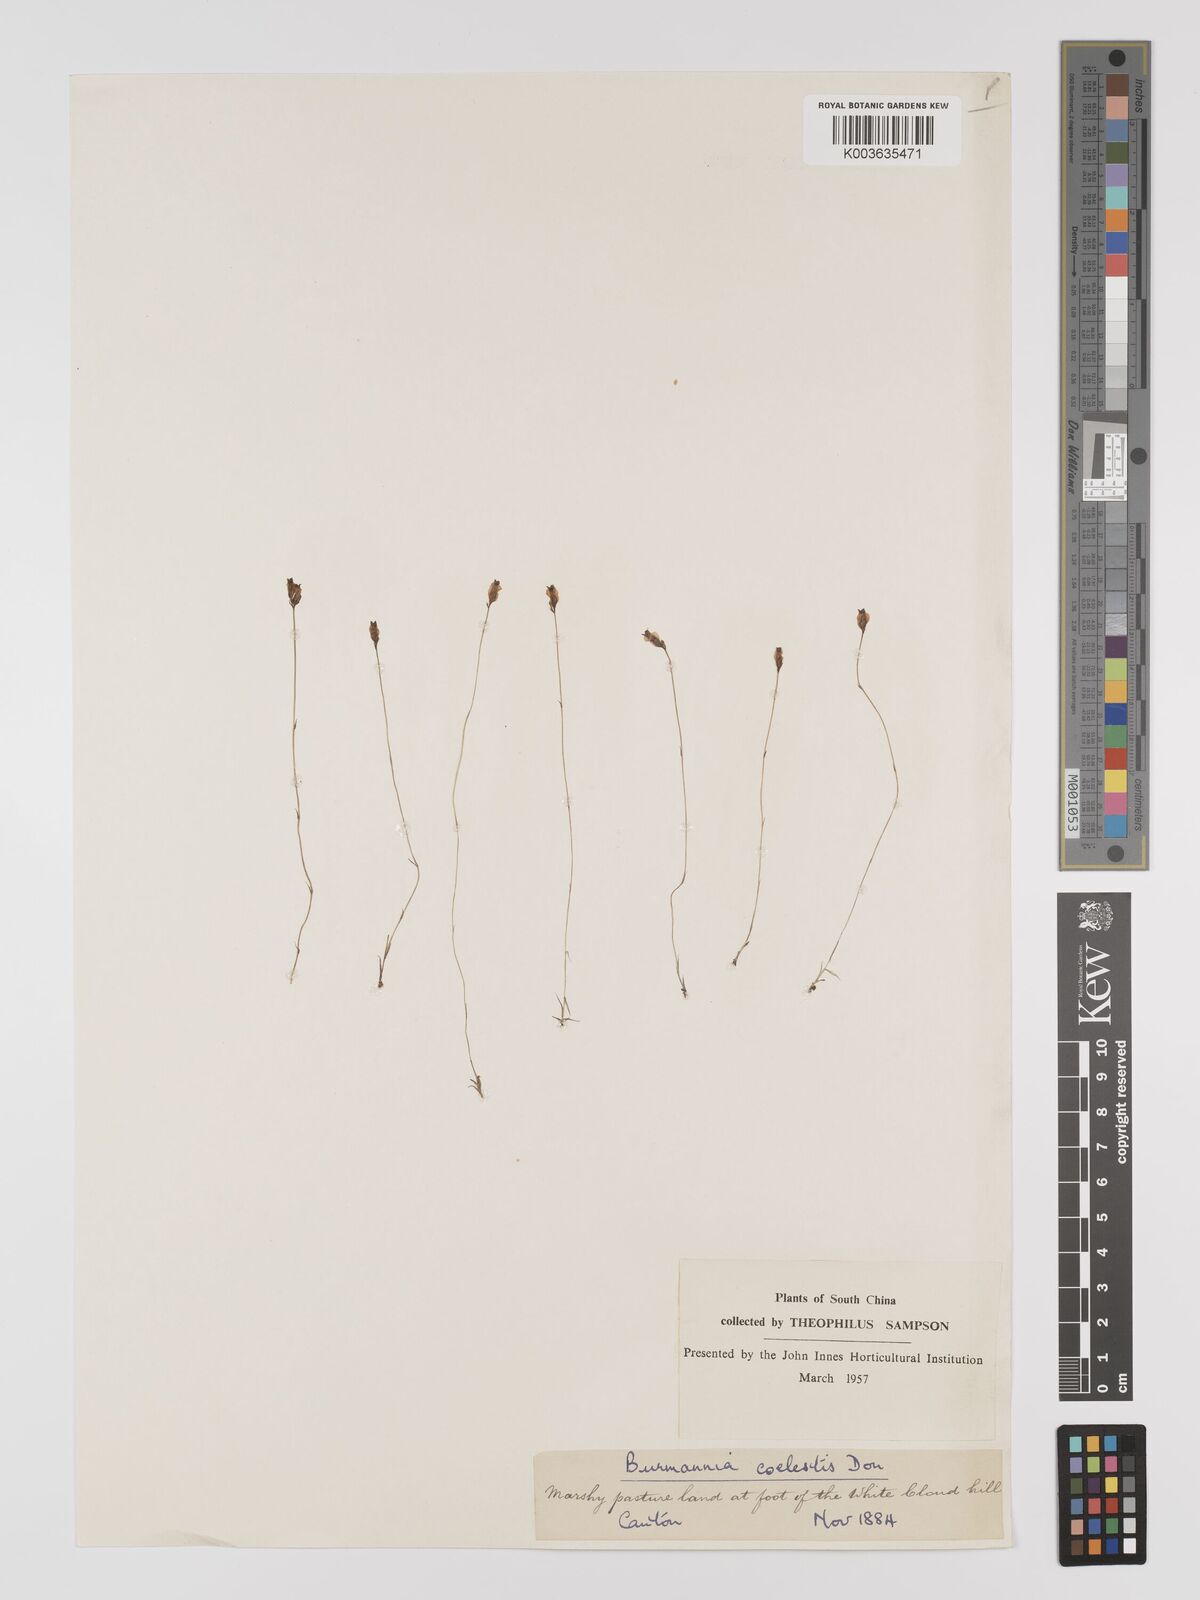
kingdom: Plantae
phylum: Tracheophyta
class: Liliopsida
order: Dioscoreales
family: Burmanniaceae
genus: Burmannia
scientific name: Burmannia coelestis
